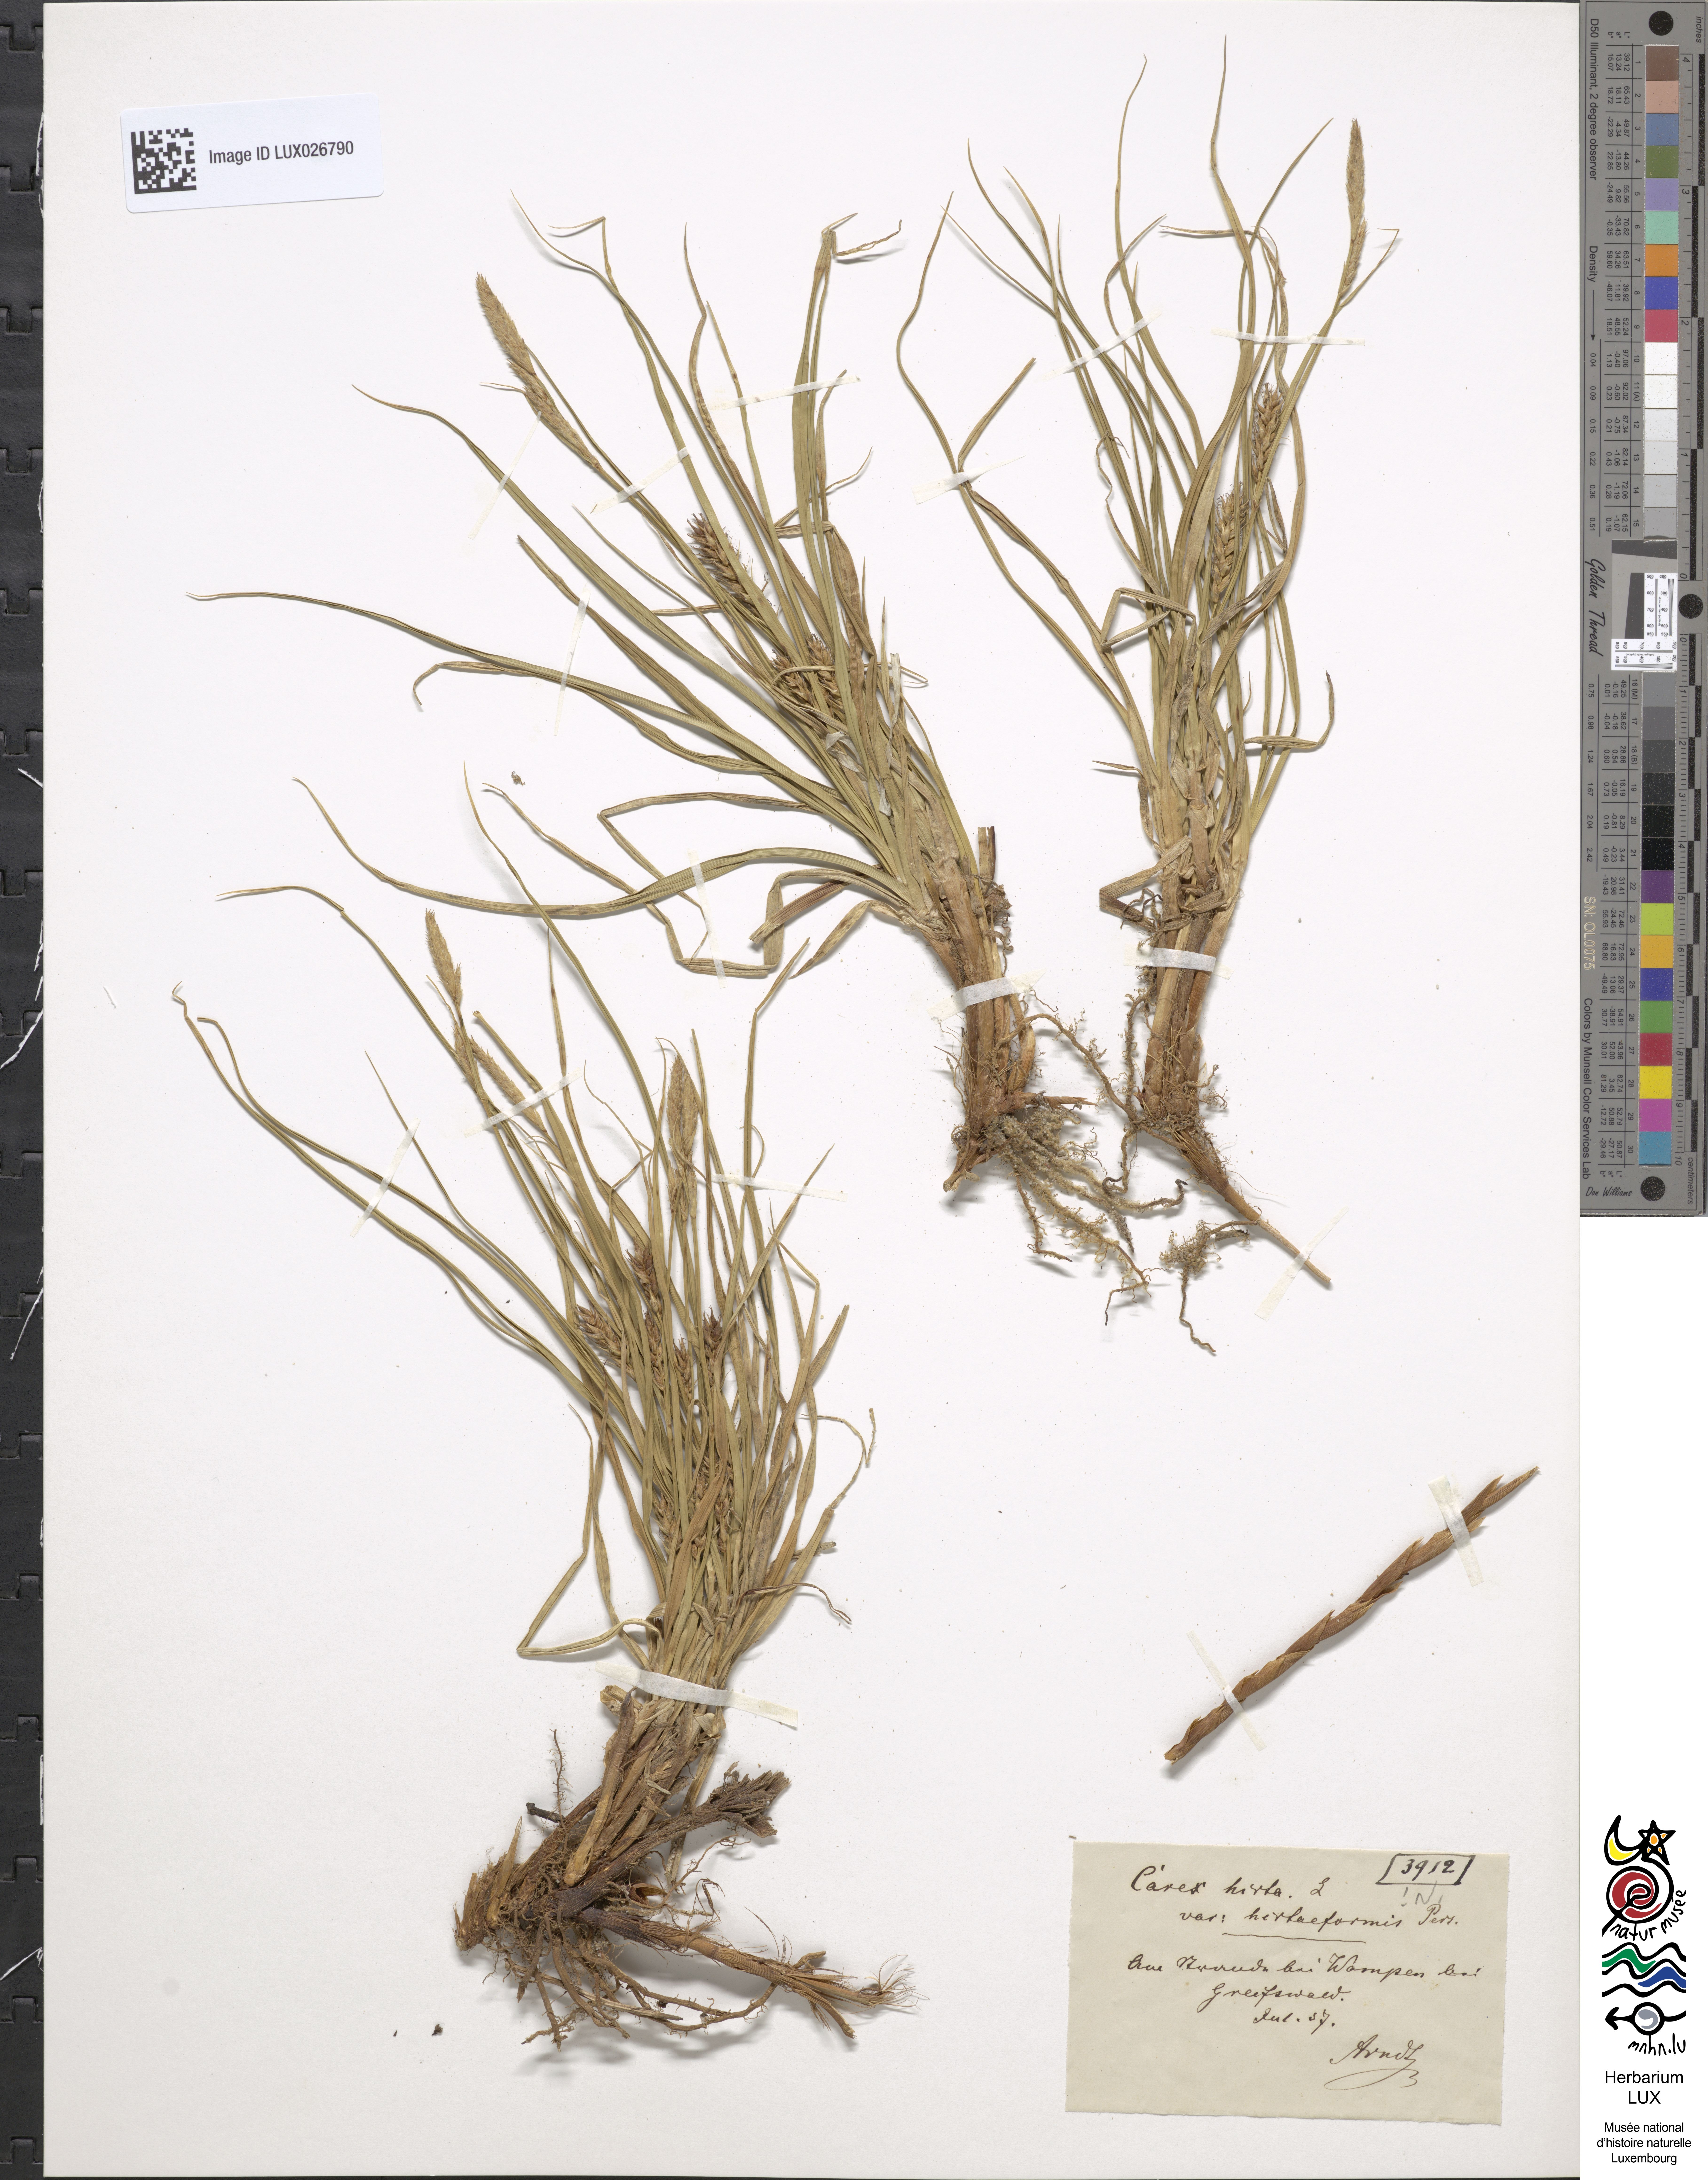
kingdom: Plantae
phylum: Tracheophyta
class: Liliopsida
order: Poales
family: Cyperaceae
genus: Carex
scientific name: Carex hirta
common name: Hairy sedge
